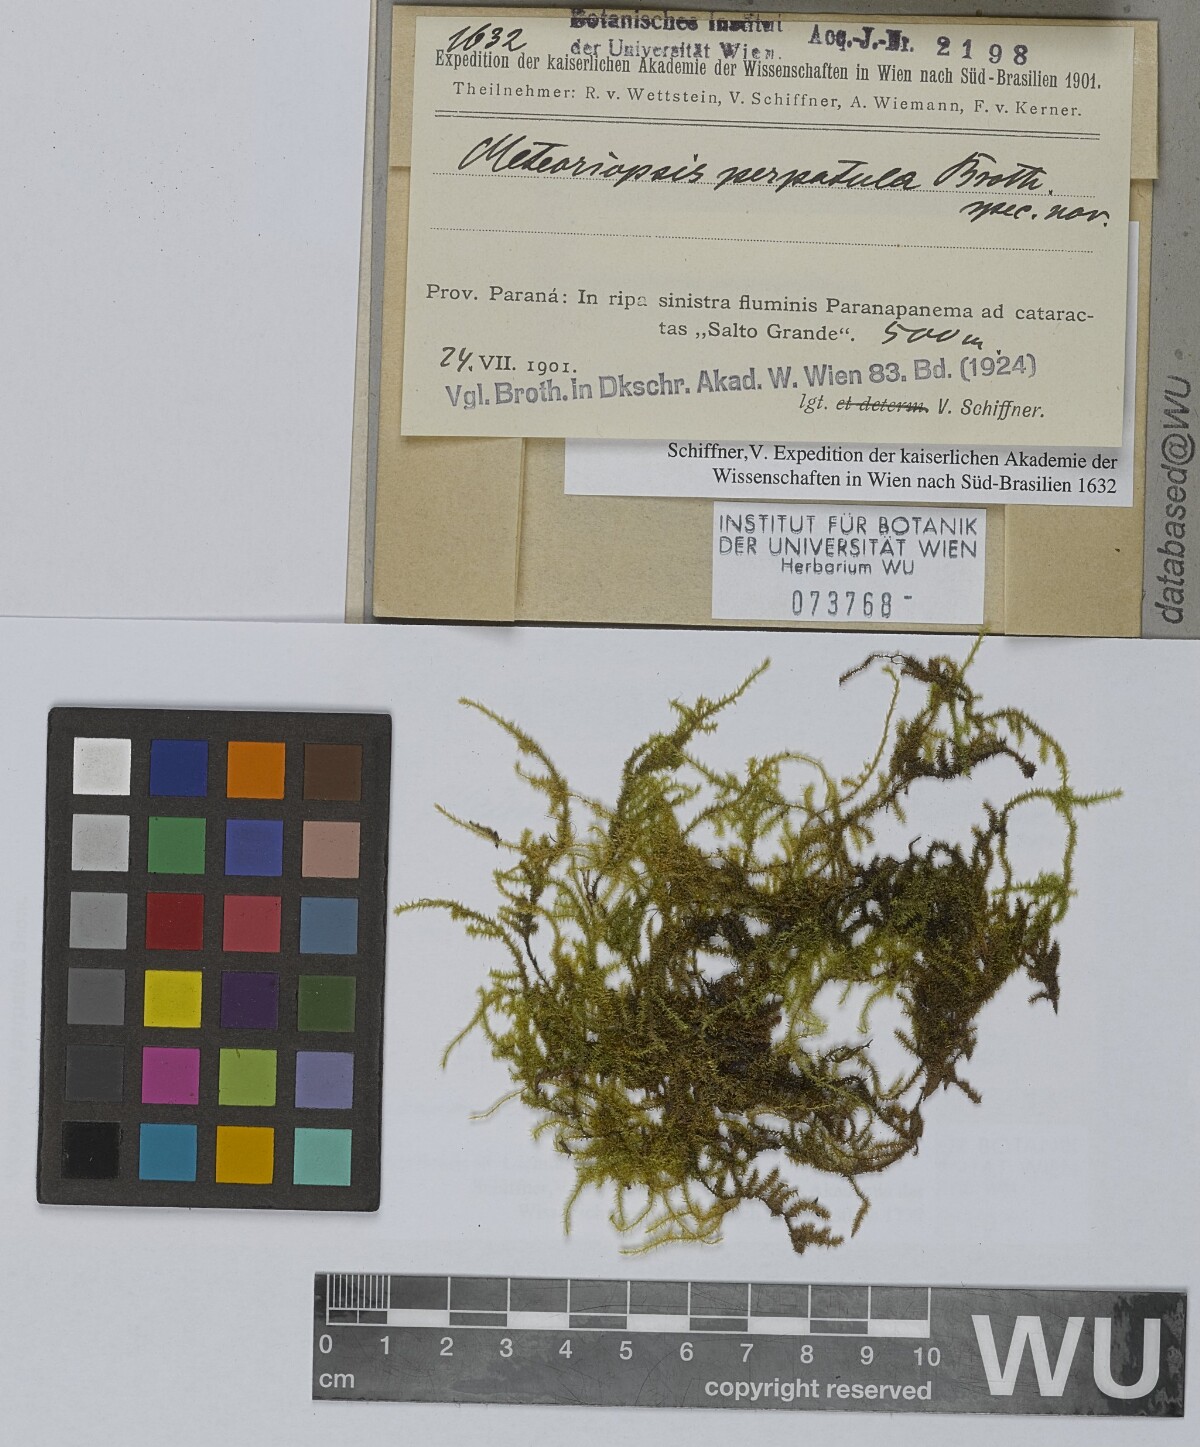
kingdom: Plantae
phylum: Bryophyta
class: Bryopsida
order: Hypnales
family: Brachytheciaceae
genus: Zelometeorium
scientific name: Zelometeorium patulum
